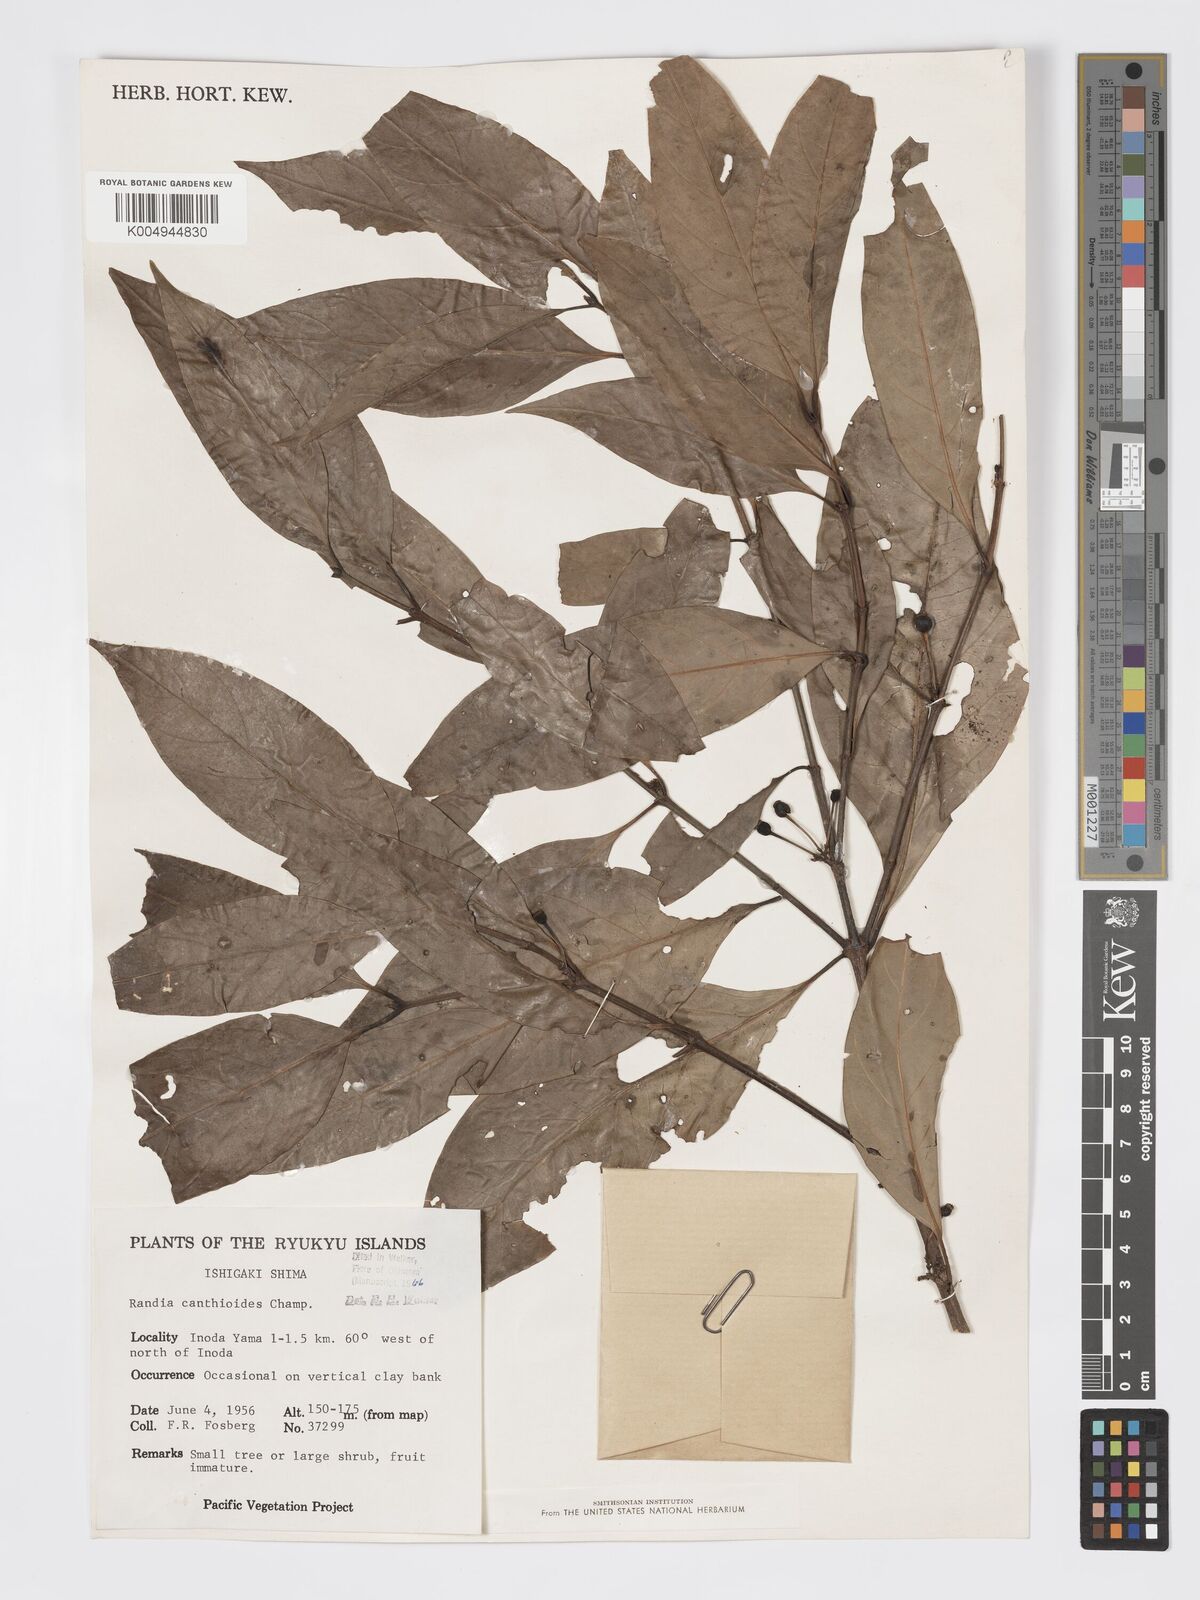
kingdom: Plantae
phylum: Tracheophyta
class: Magnoliopsida
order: Gentianales
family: Rubiaceae
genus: Aidia
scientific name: Aidia canthioides
